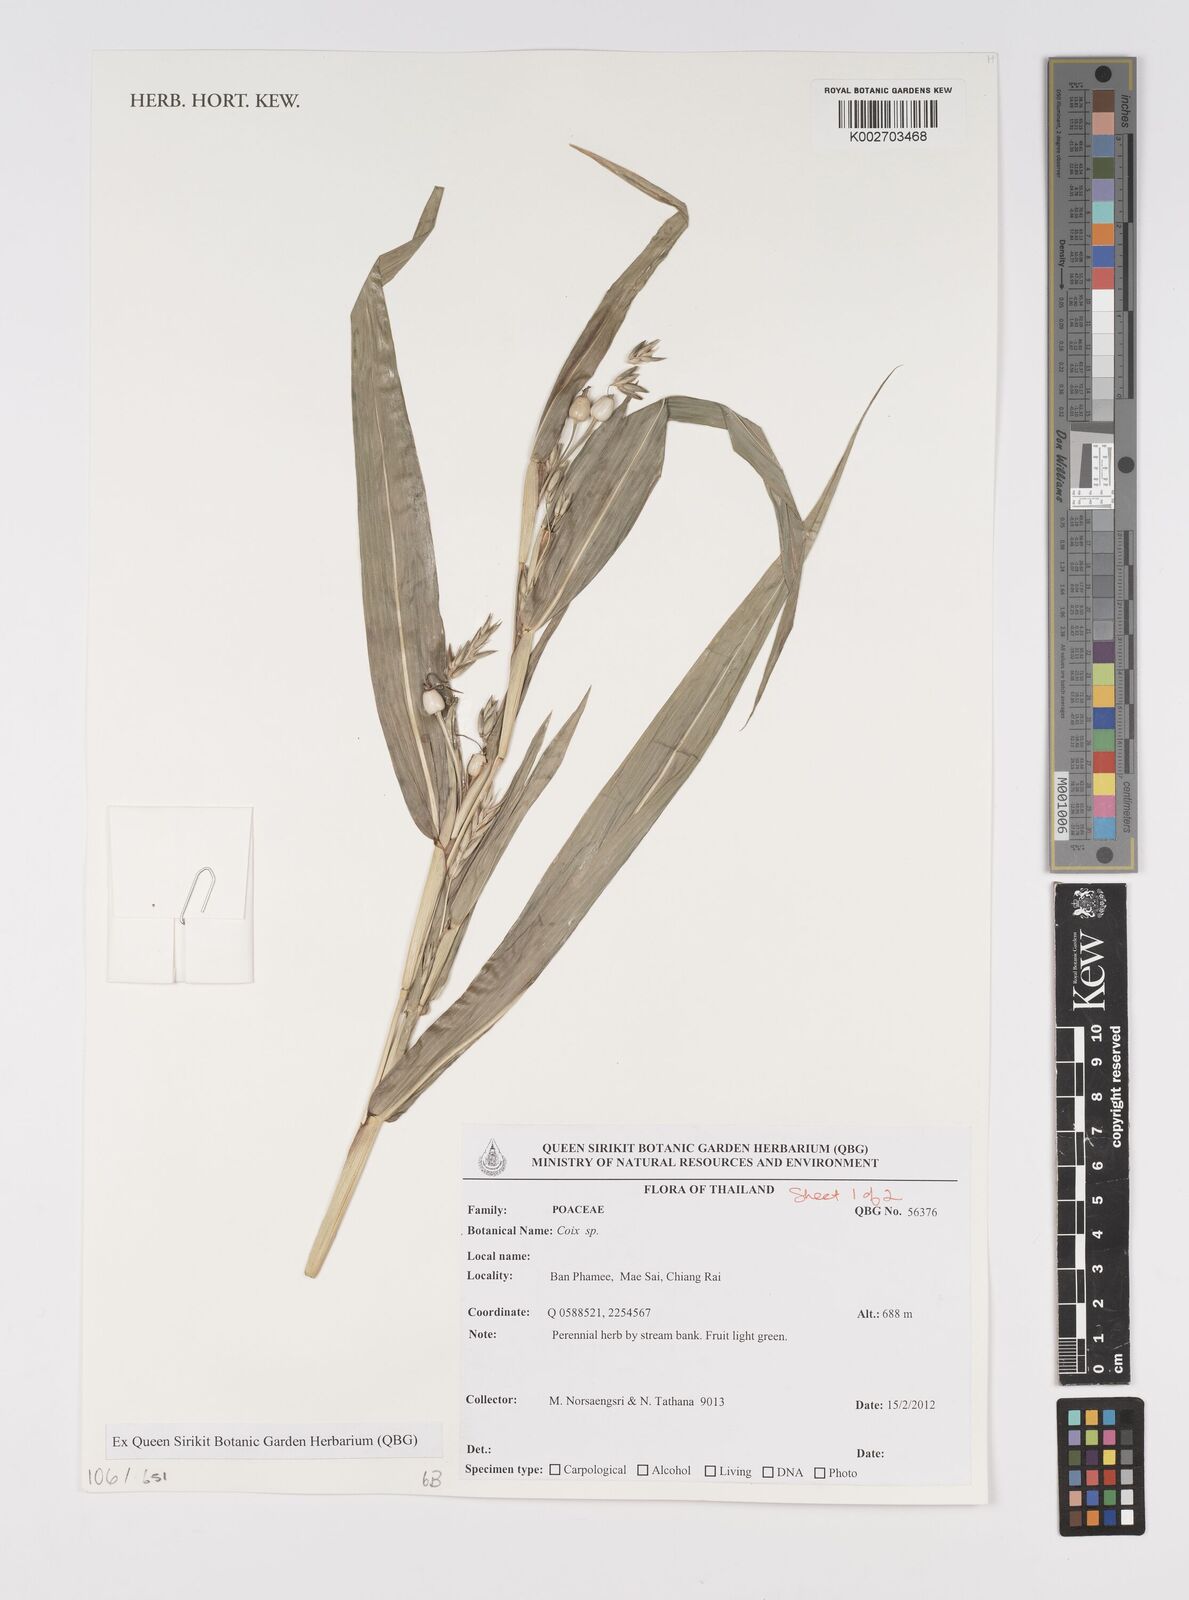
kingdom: Plantae
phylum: Tracheophyta
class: Liliopsida
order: Poales
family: Poaceae
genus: Coix
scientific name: Coix
